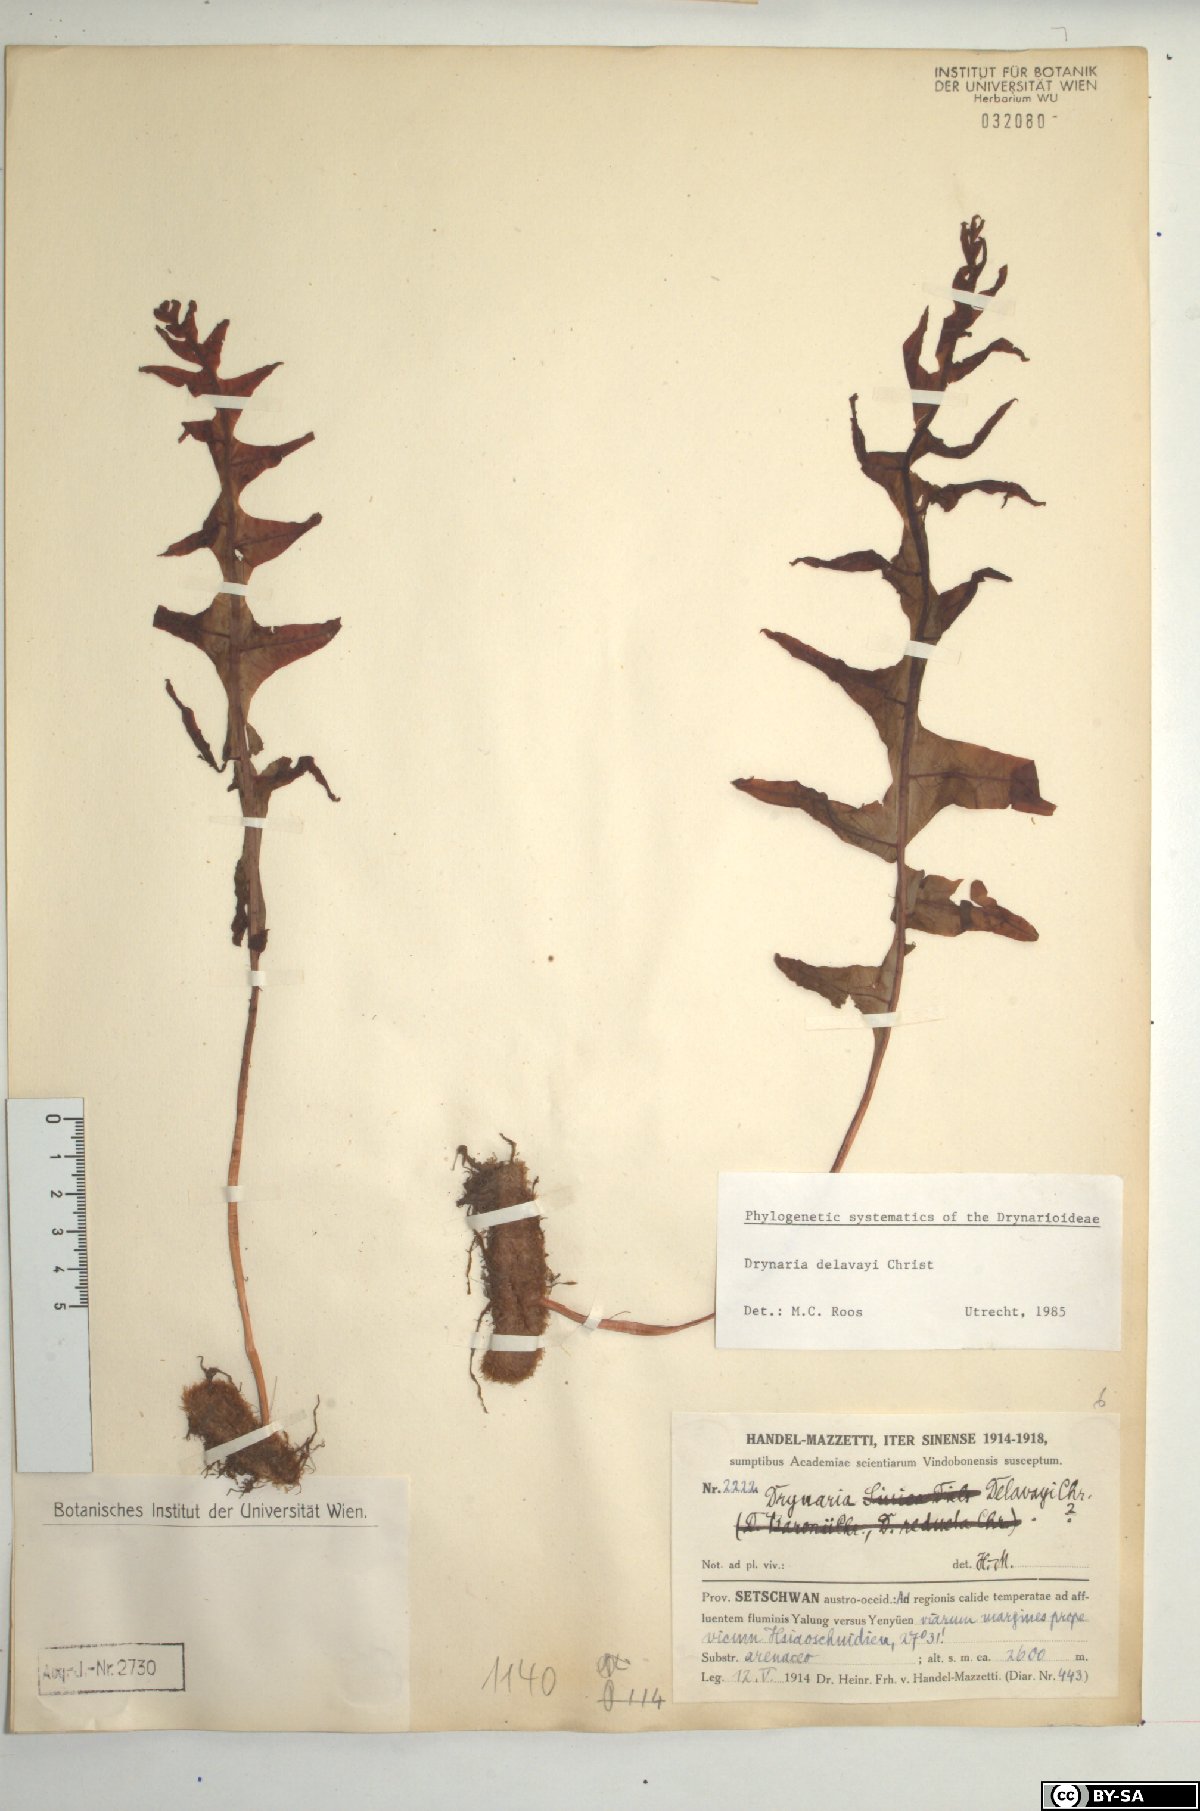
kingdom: Plantae
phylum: Tracheophyta
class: Polypodiopsida
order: Polypodiales
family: Polypodiaceae
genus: Drynaria
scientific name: Drynaria delavayi
